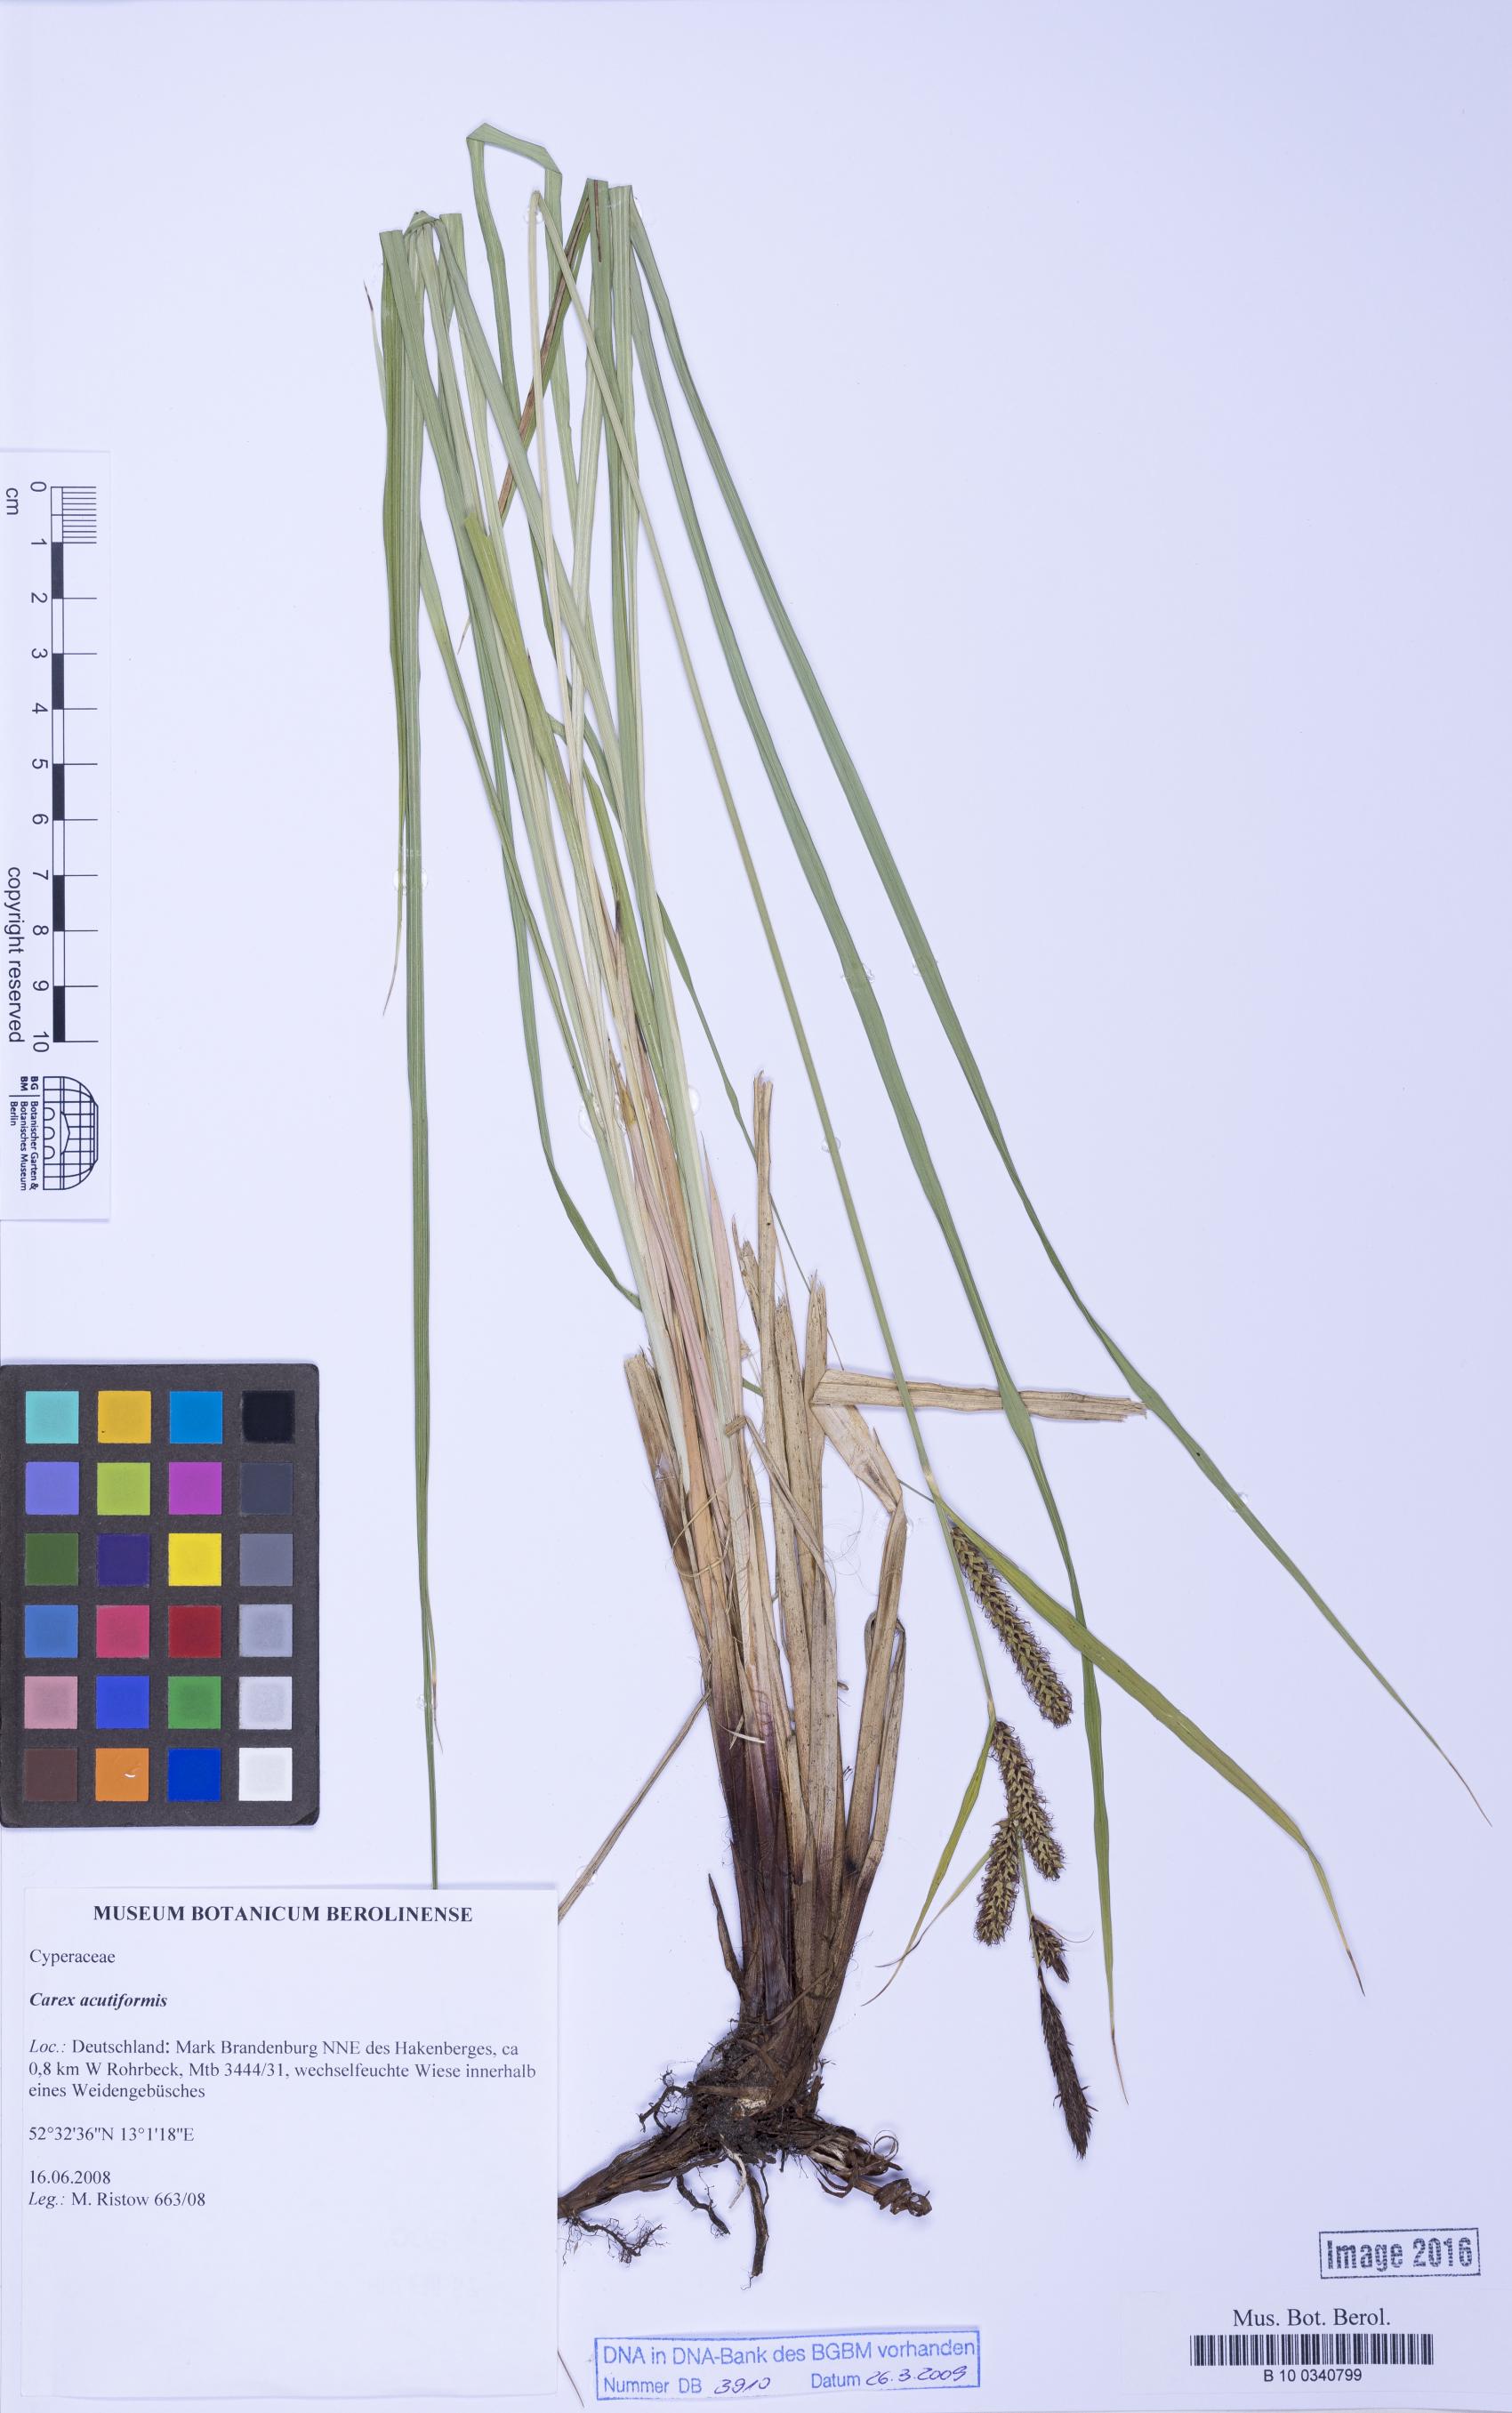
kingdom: Plantae
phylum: Tracheophyta
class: Liliopsida
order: Poales
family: Cyperaceae
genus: Carex
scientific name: Carex acutiformis
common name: Lesser pond-sedge
